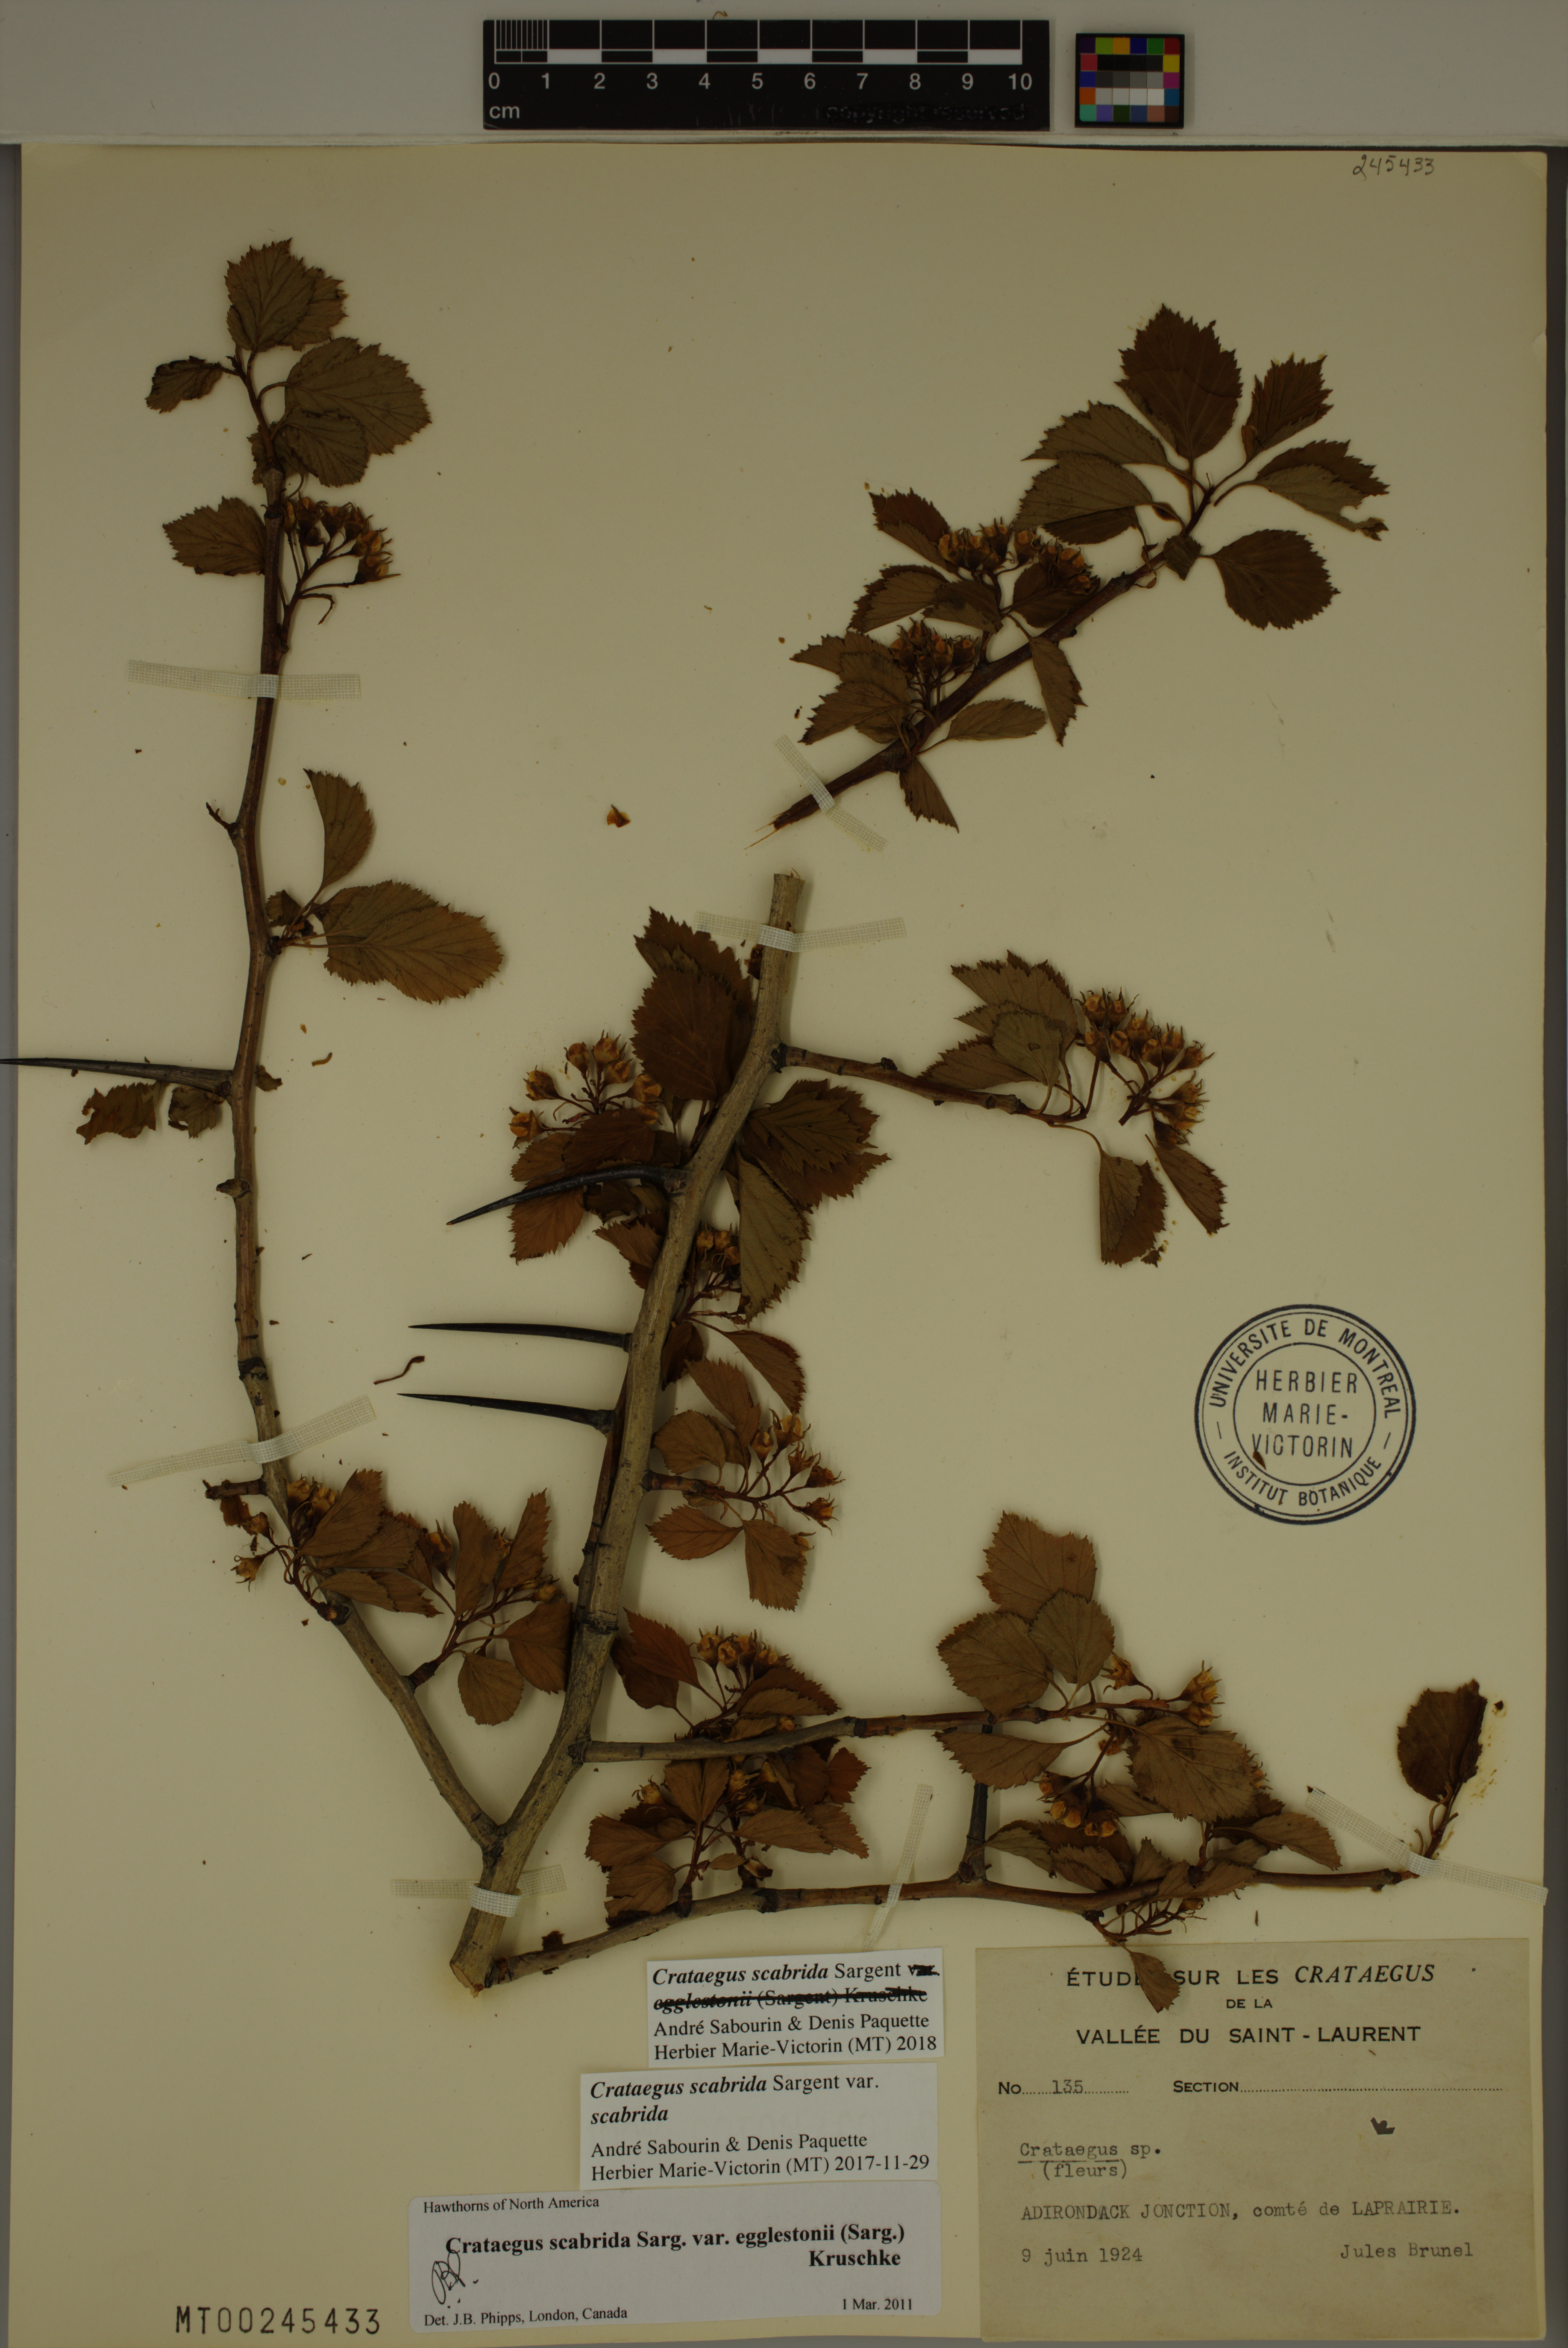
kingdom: Plantae
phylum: Tracheophyta
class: Magnoliopsida
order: Rosales
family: Rosaceae
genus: Crataegus
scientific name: Crataegus scabrida
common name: Rough hawthorn
